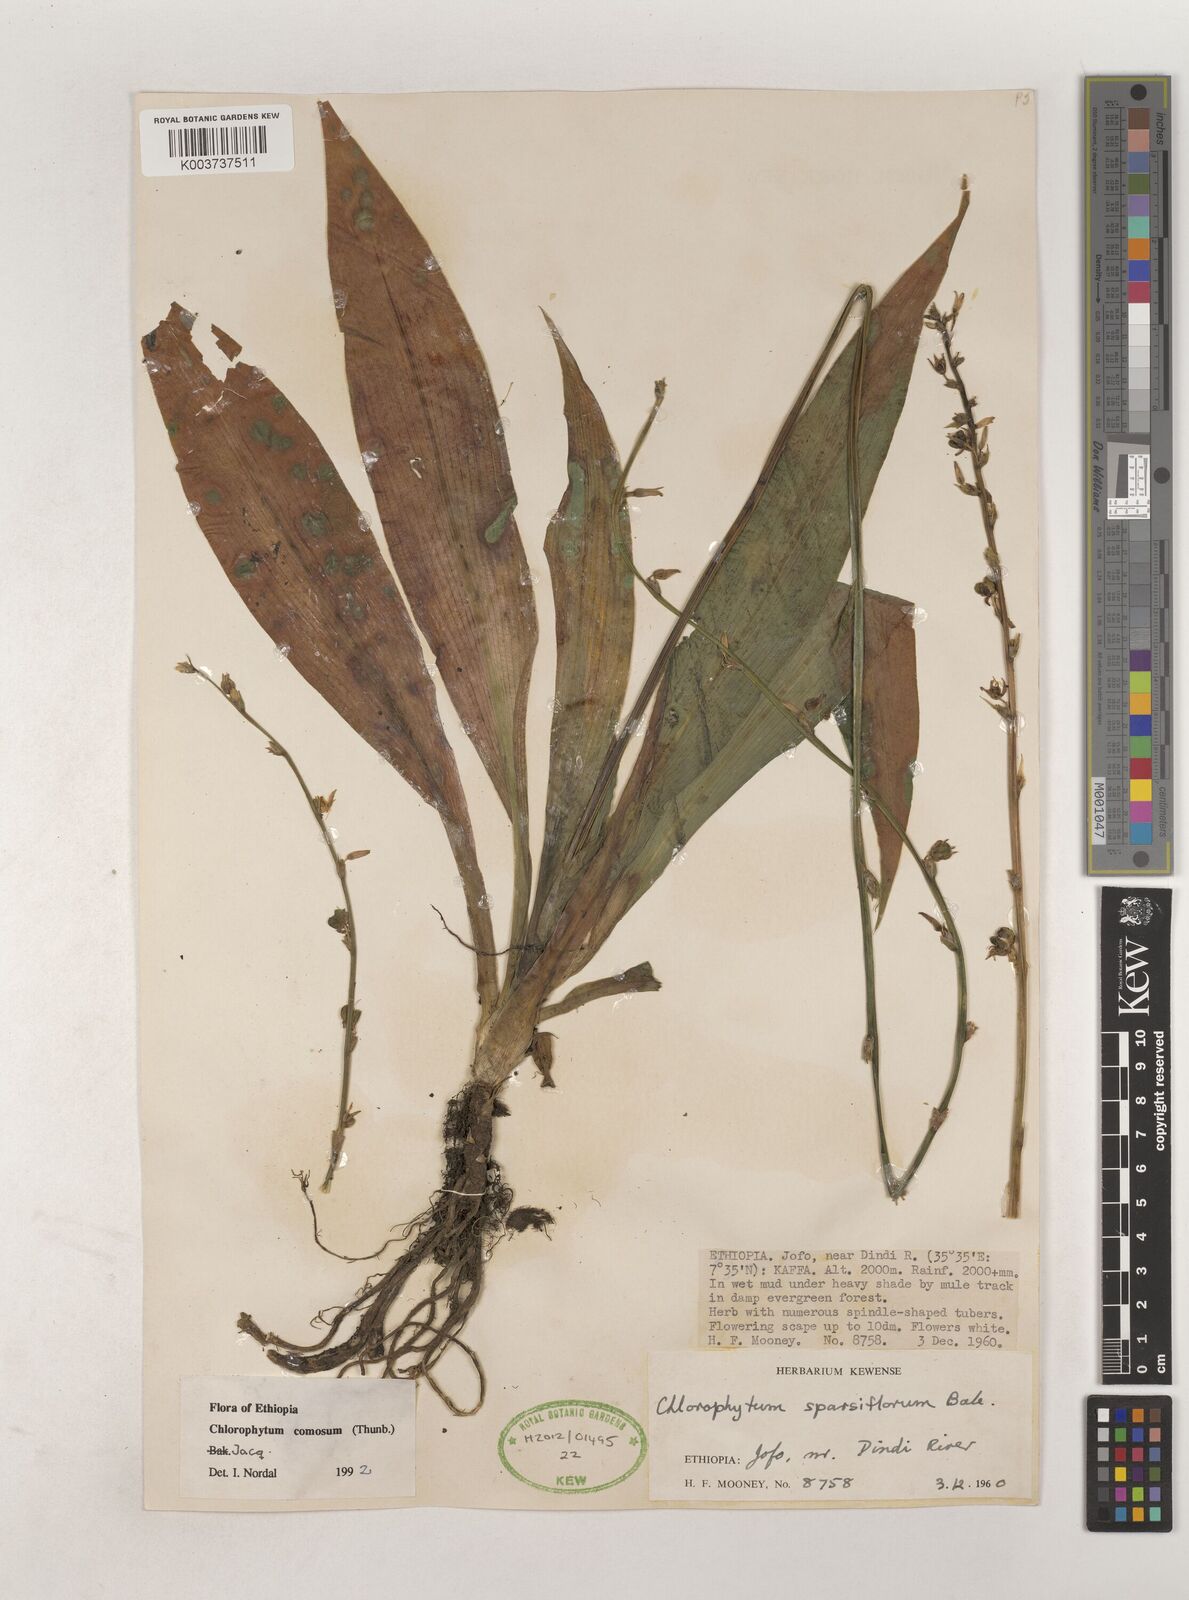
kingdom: Plantae
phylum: Tracheophyta
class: Liliopsida
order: Asparagales
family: Asparagaceae
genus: Chlorophytum
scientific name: Chlorophytum comosum
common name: Spider plant
